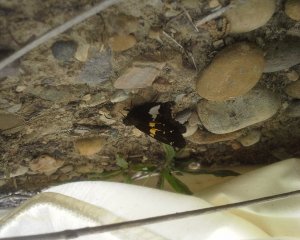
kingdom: Animalia
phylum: Arthropoda
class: Insecta
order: Lepidoptera
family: Hesperiidae
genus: Epargyreus
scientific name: Epargyreus clarus
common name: Silver-spotted Skipper
